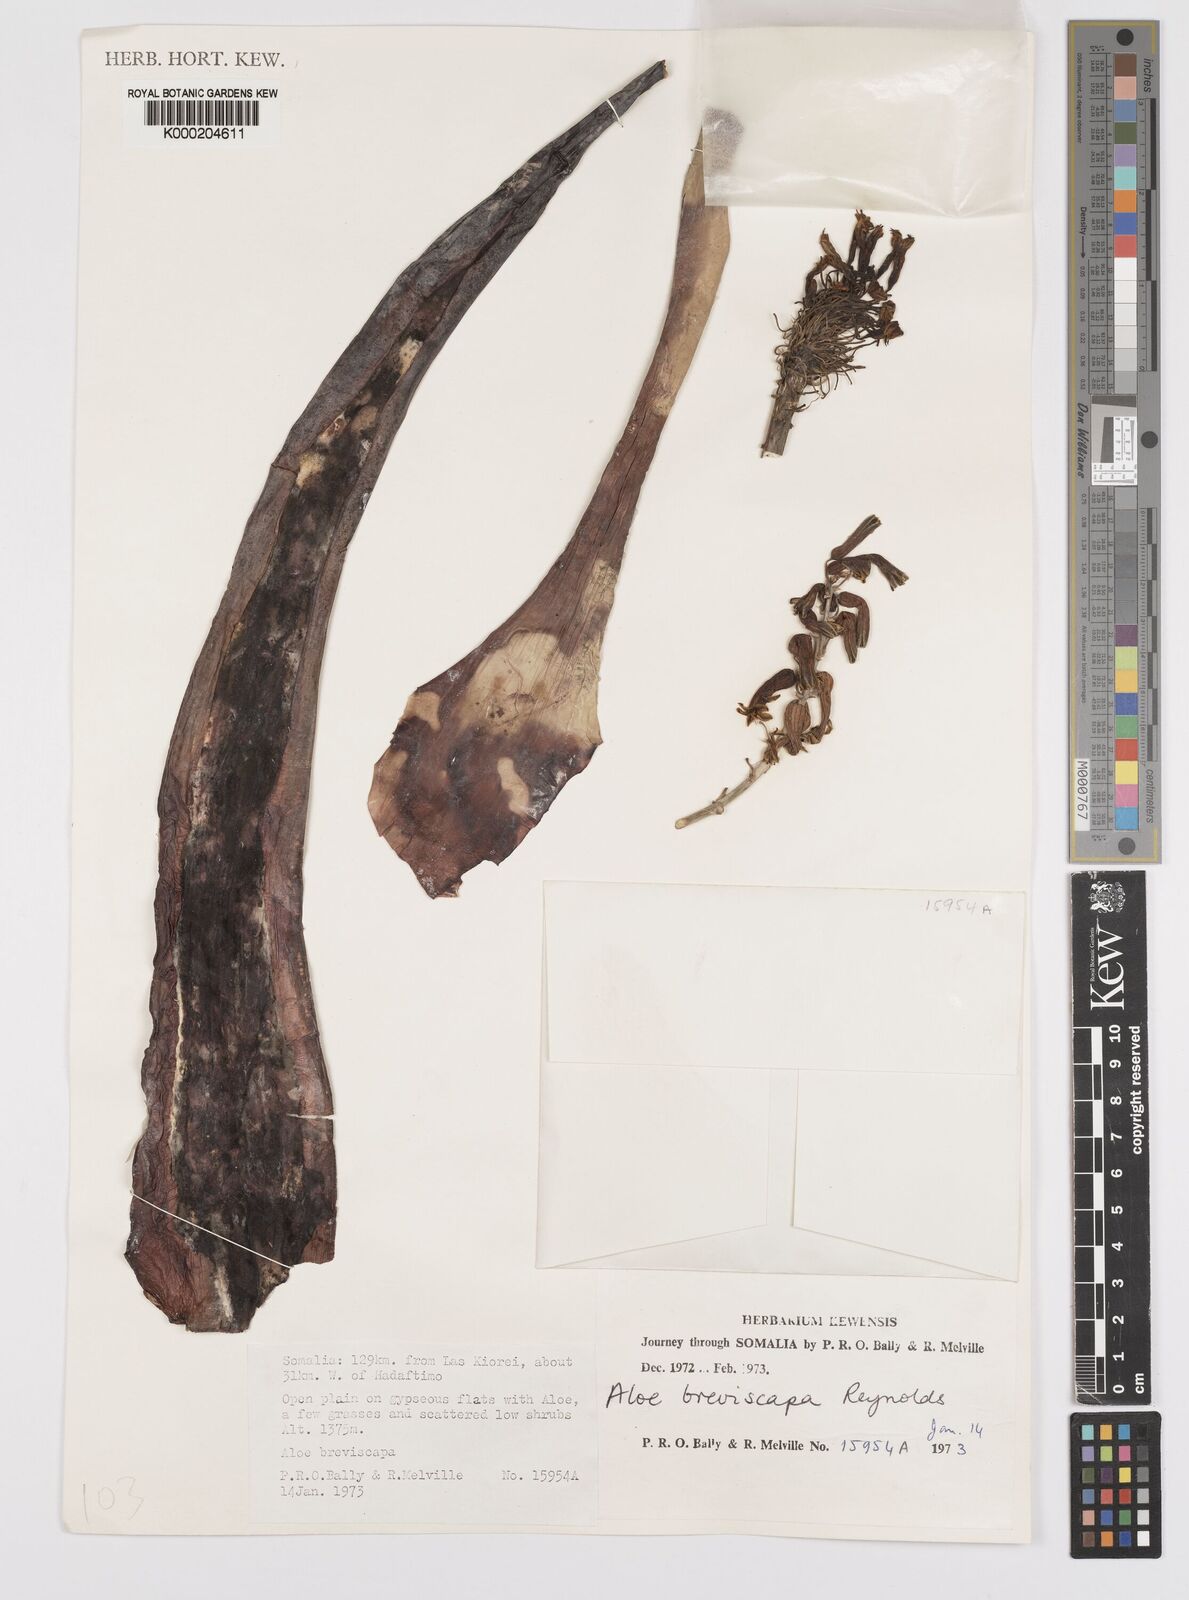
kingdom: Plantae
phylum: Tracheophyta
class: Liliopsida
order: Asparagales
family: Asphodelaceae
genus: Aloe
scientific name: Aloe breviscapa
